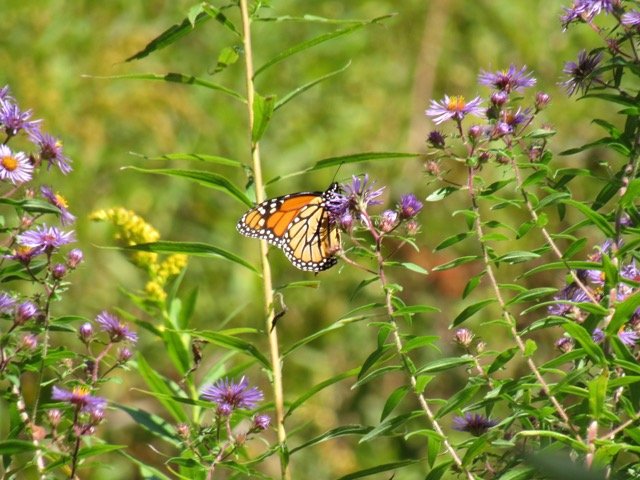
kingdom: Animalia
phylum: Arthropoda
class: Insecta
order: Lepidoptera
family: Nymphalidae
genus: Danaus
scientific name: Danaus plexippus
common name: Monarch
